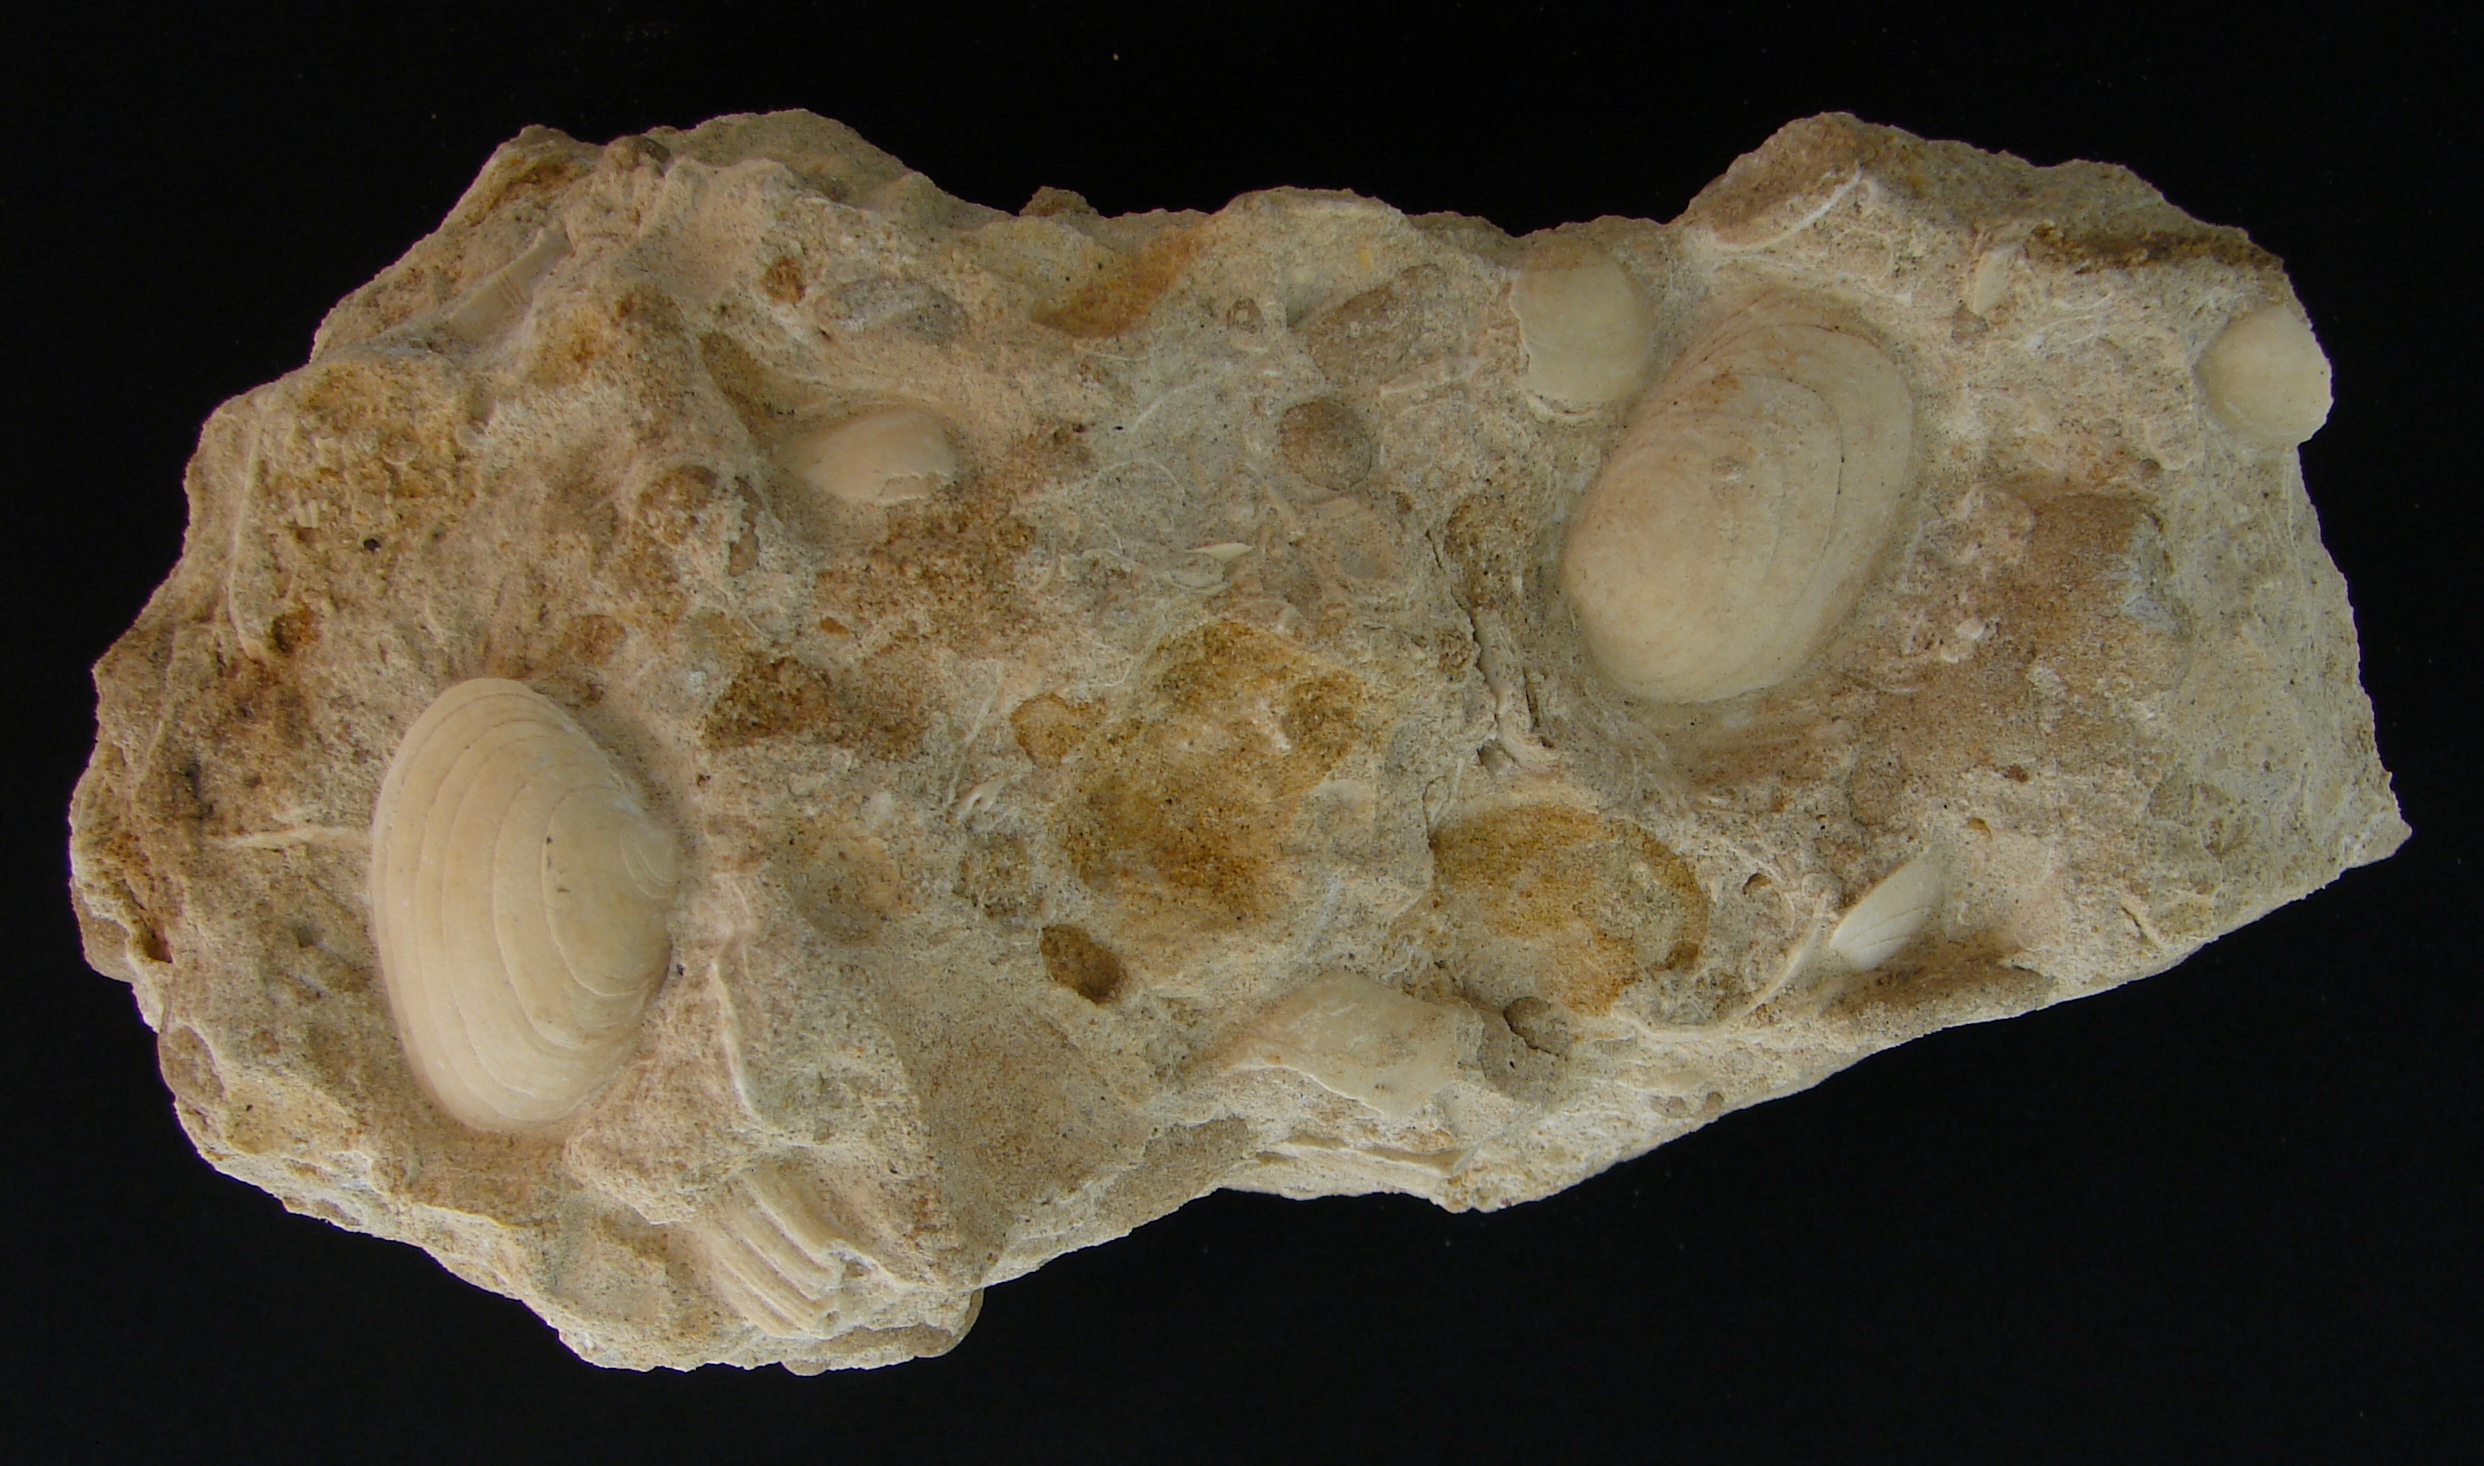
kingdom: Animalia
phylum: Mollusca
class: Bivalvia
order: Carditida
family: Cardiniidae
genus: Cardinia
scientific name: Cardinia
